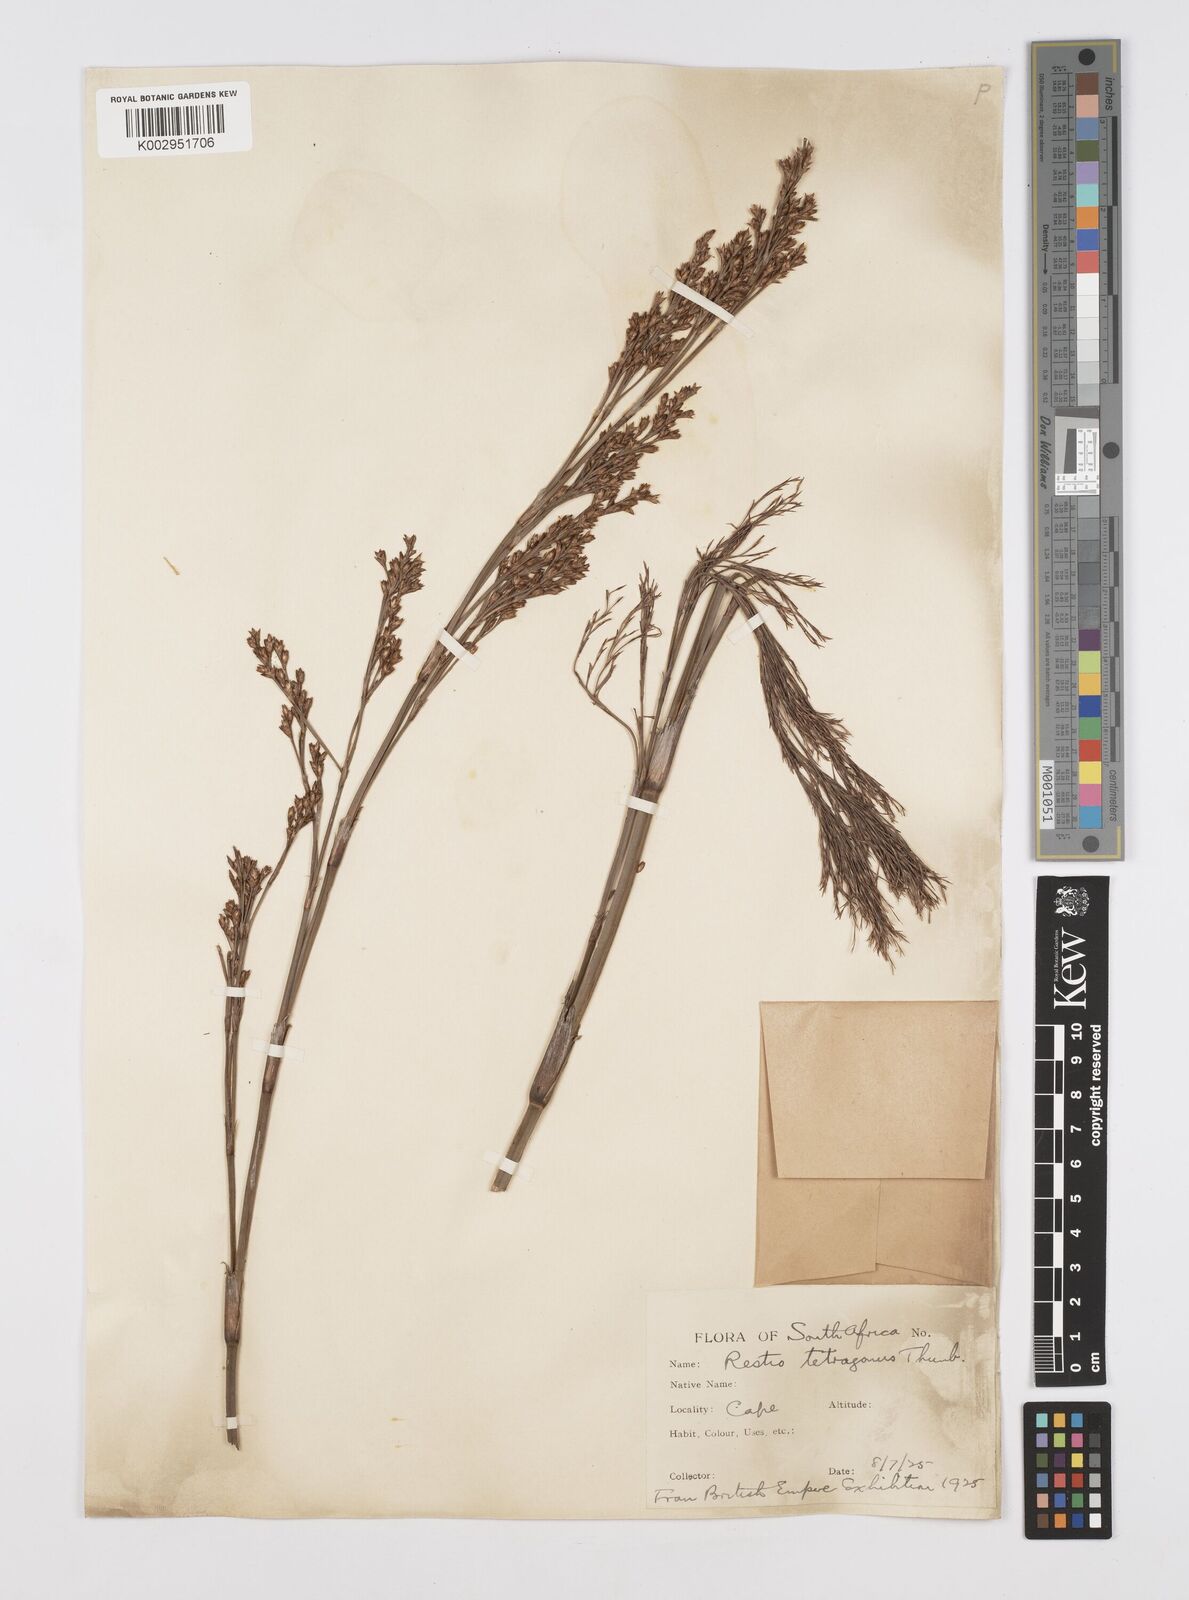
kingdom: Plantae
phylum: Tracheophyta
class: Liliopsida
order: Poales
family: Restionaceae
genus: Restio
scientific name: Restio tetragonus
